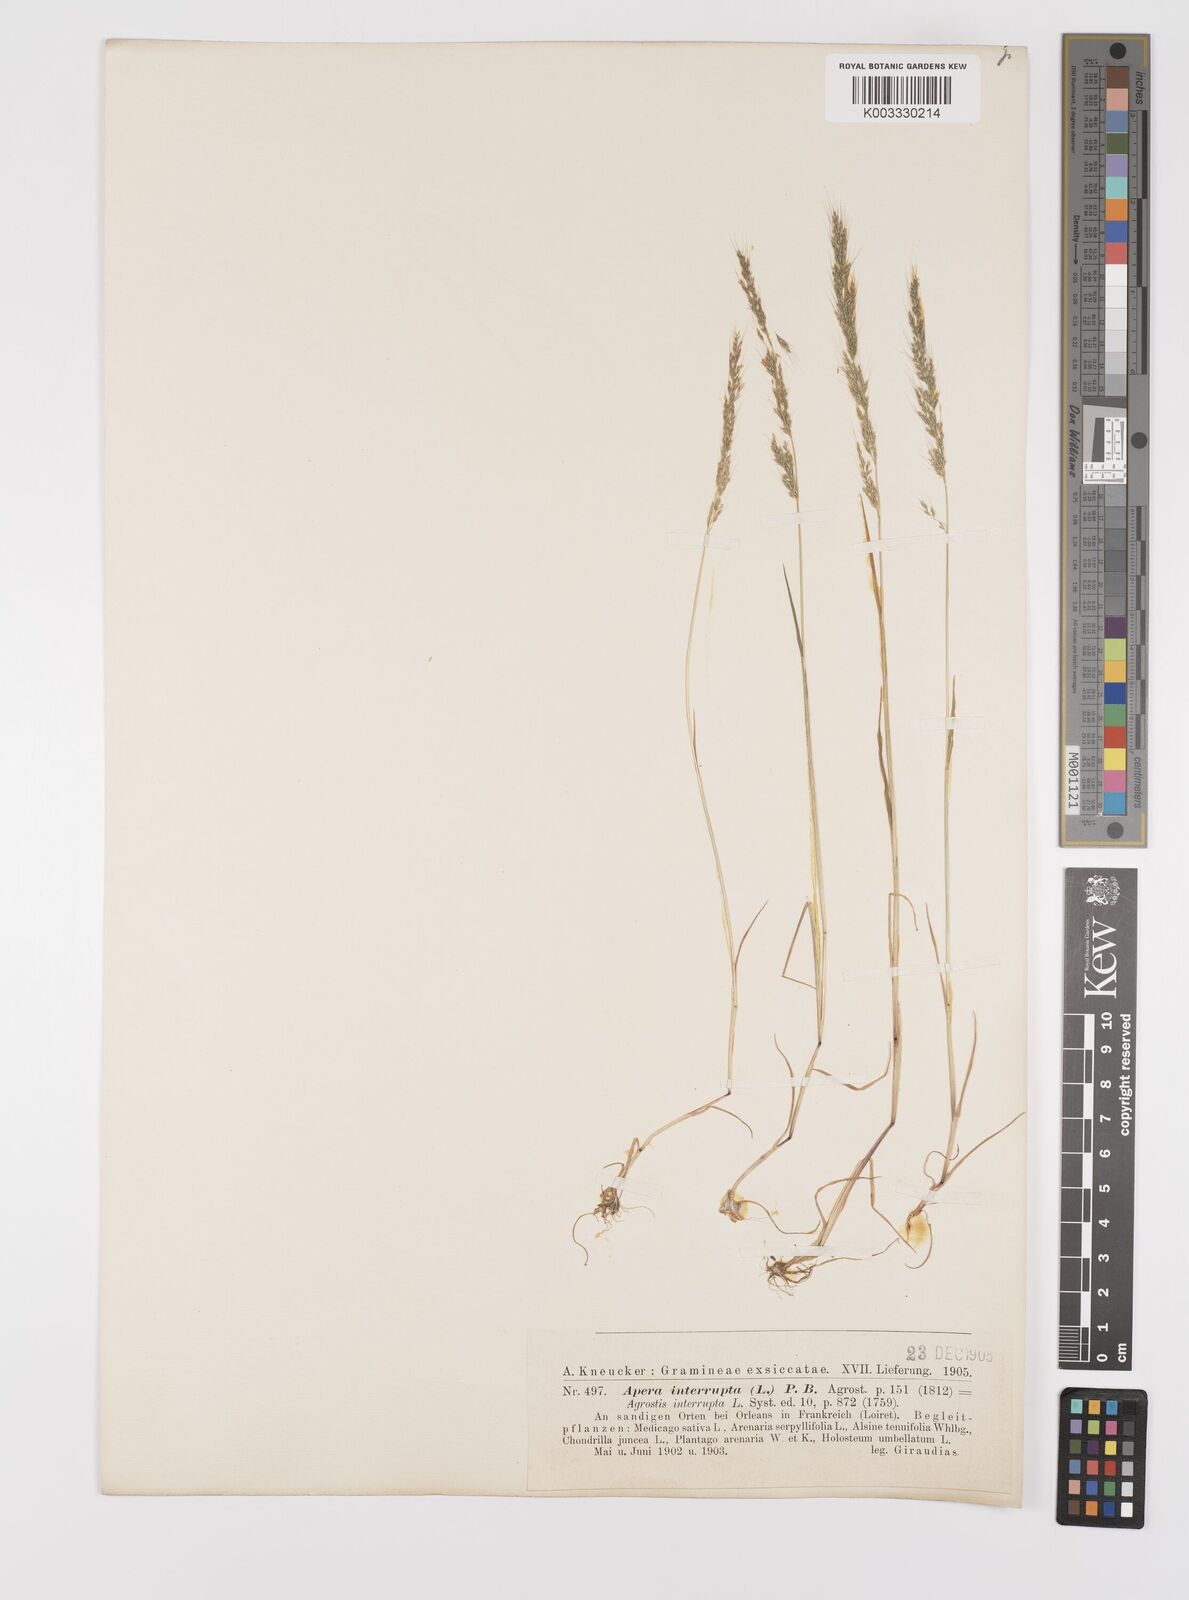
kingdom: Plantae
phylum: Tracheophyta
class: Liliopsida
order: Poales
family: Poaceae
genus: Apera
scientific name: Apera interrupta
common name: Dense silky-bent
